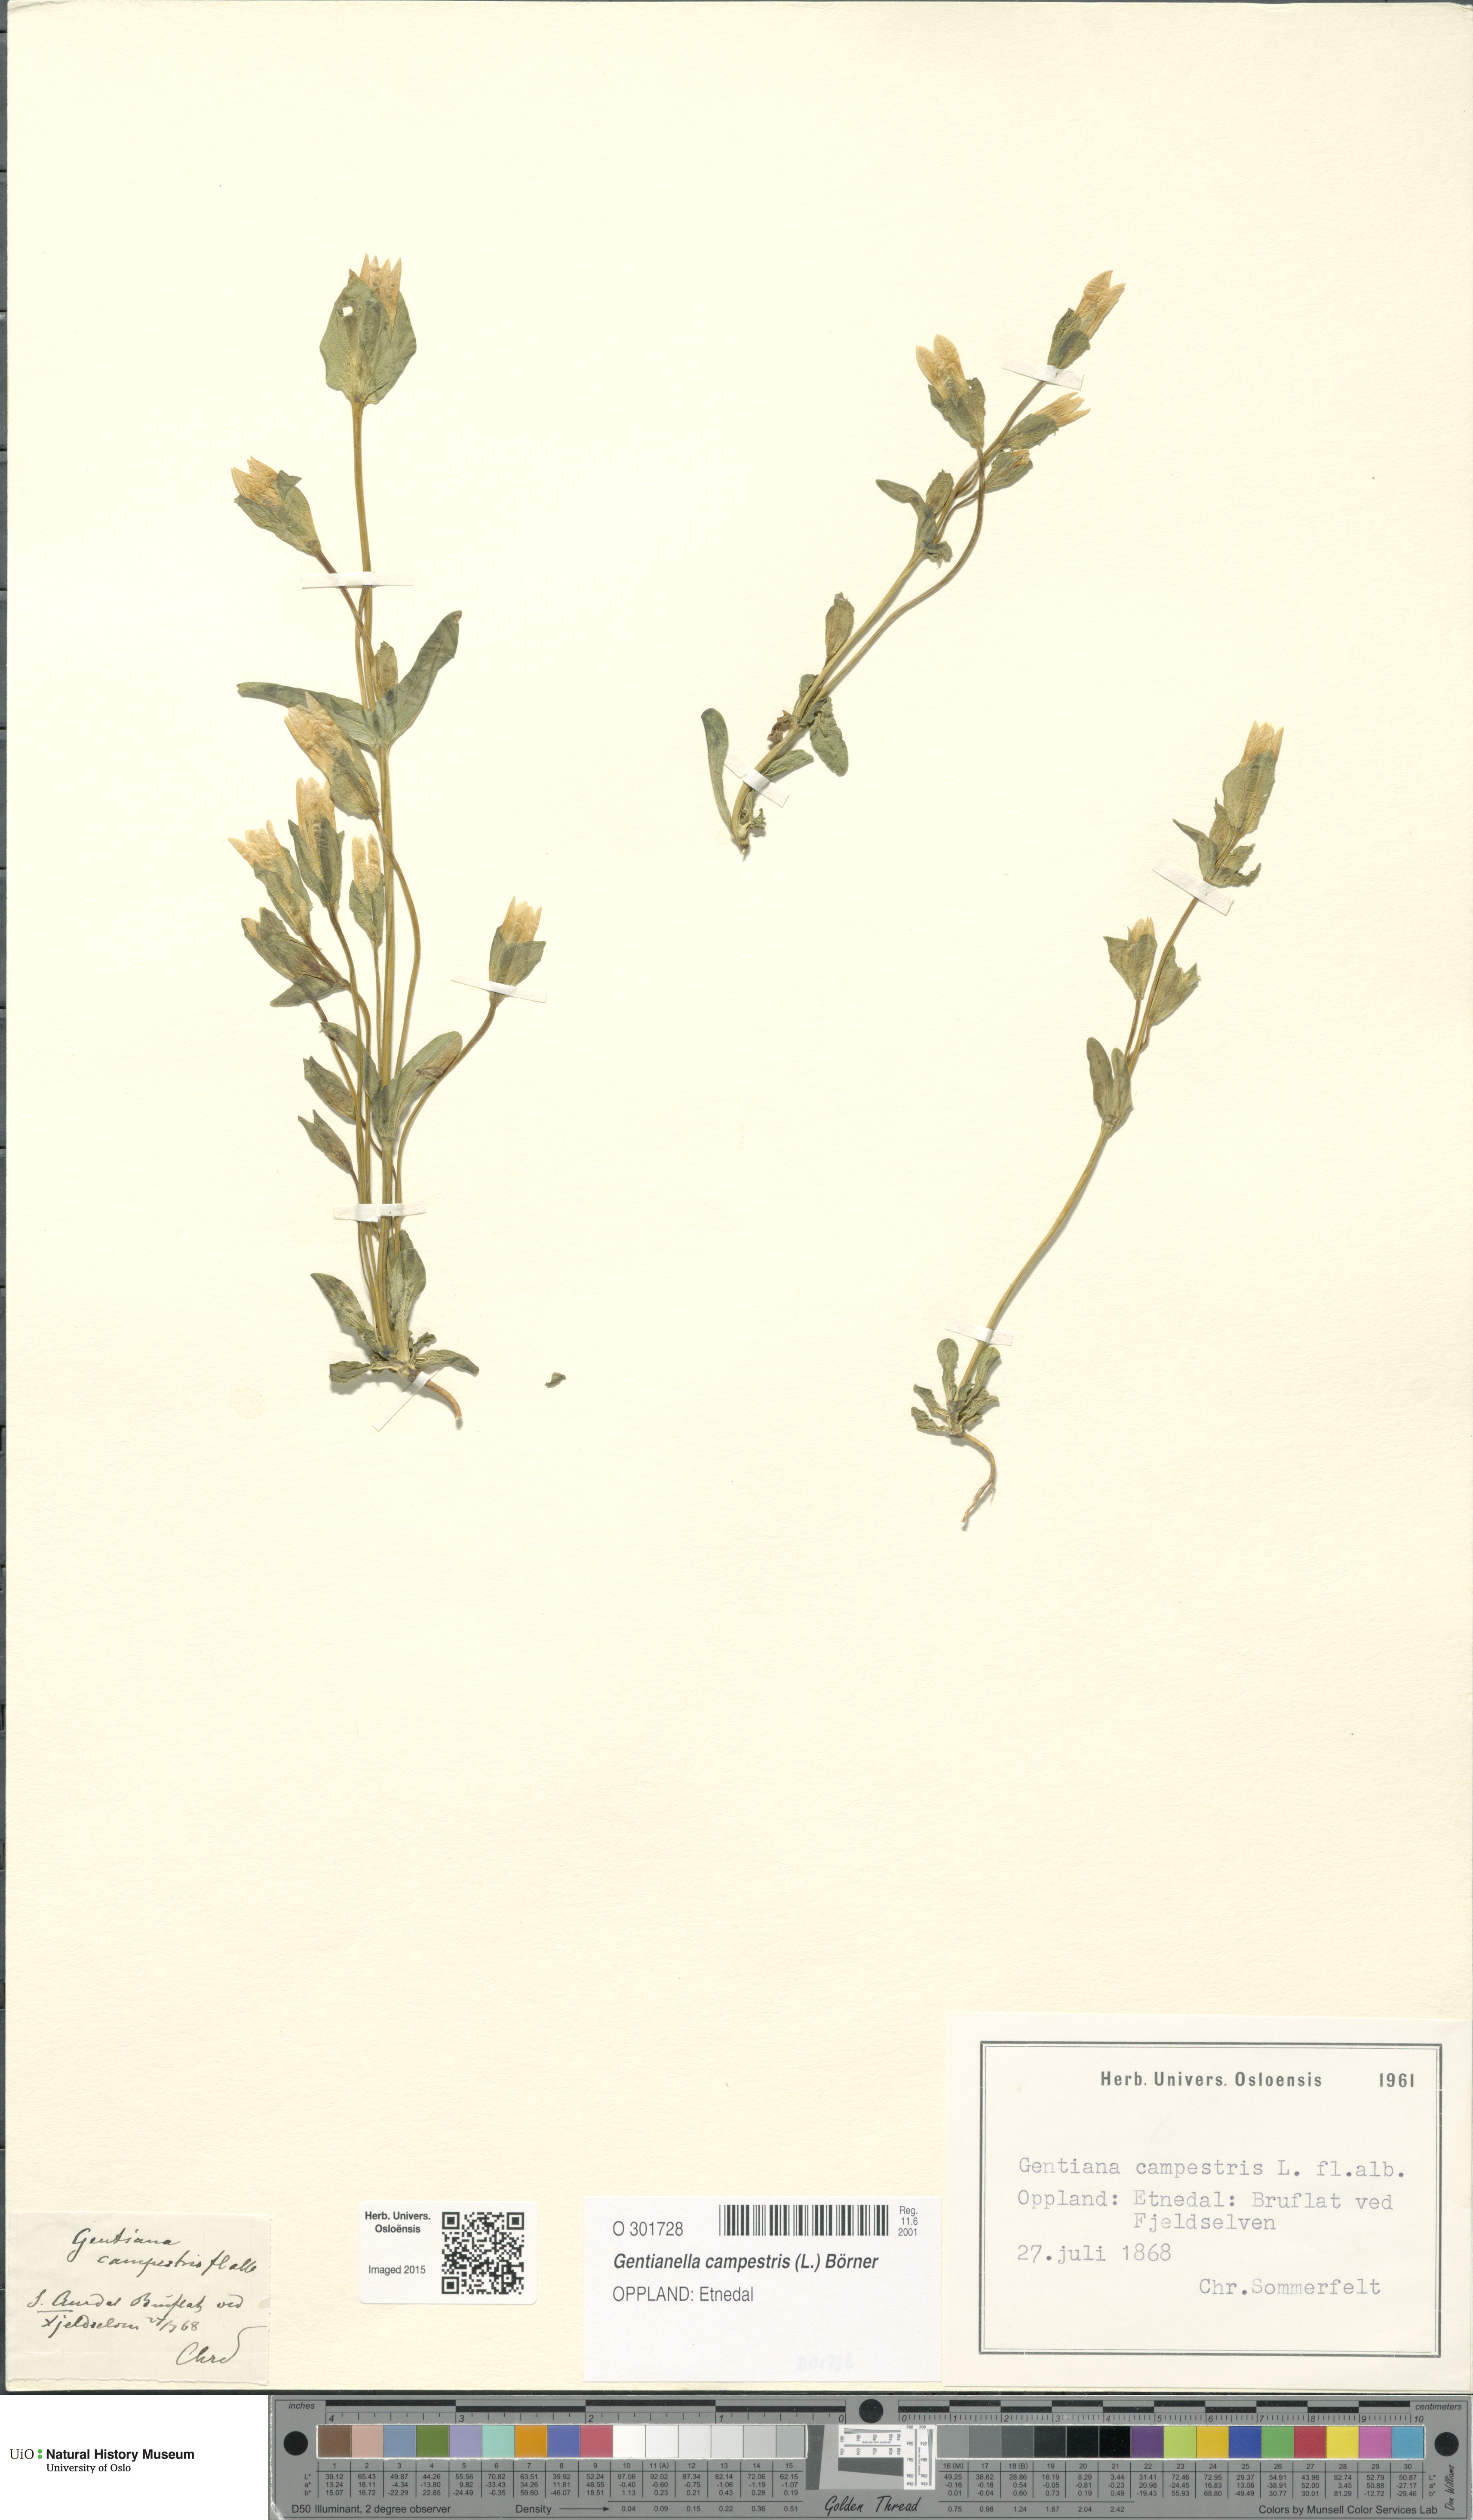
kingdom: Plantae
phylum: Tracheophyta
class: Magnoliopsida
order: Gentianales
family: Gentianaceae
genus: Gentianella
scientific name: Gentianella campestris
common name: Field gentian
